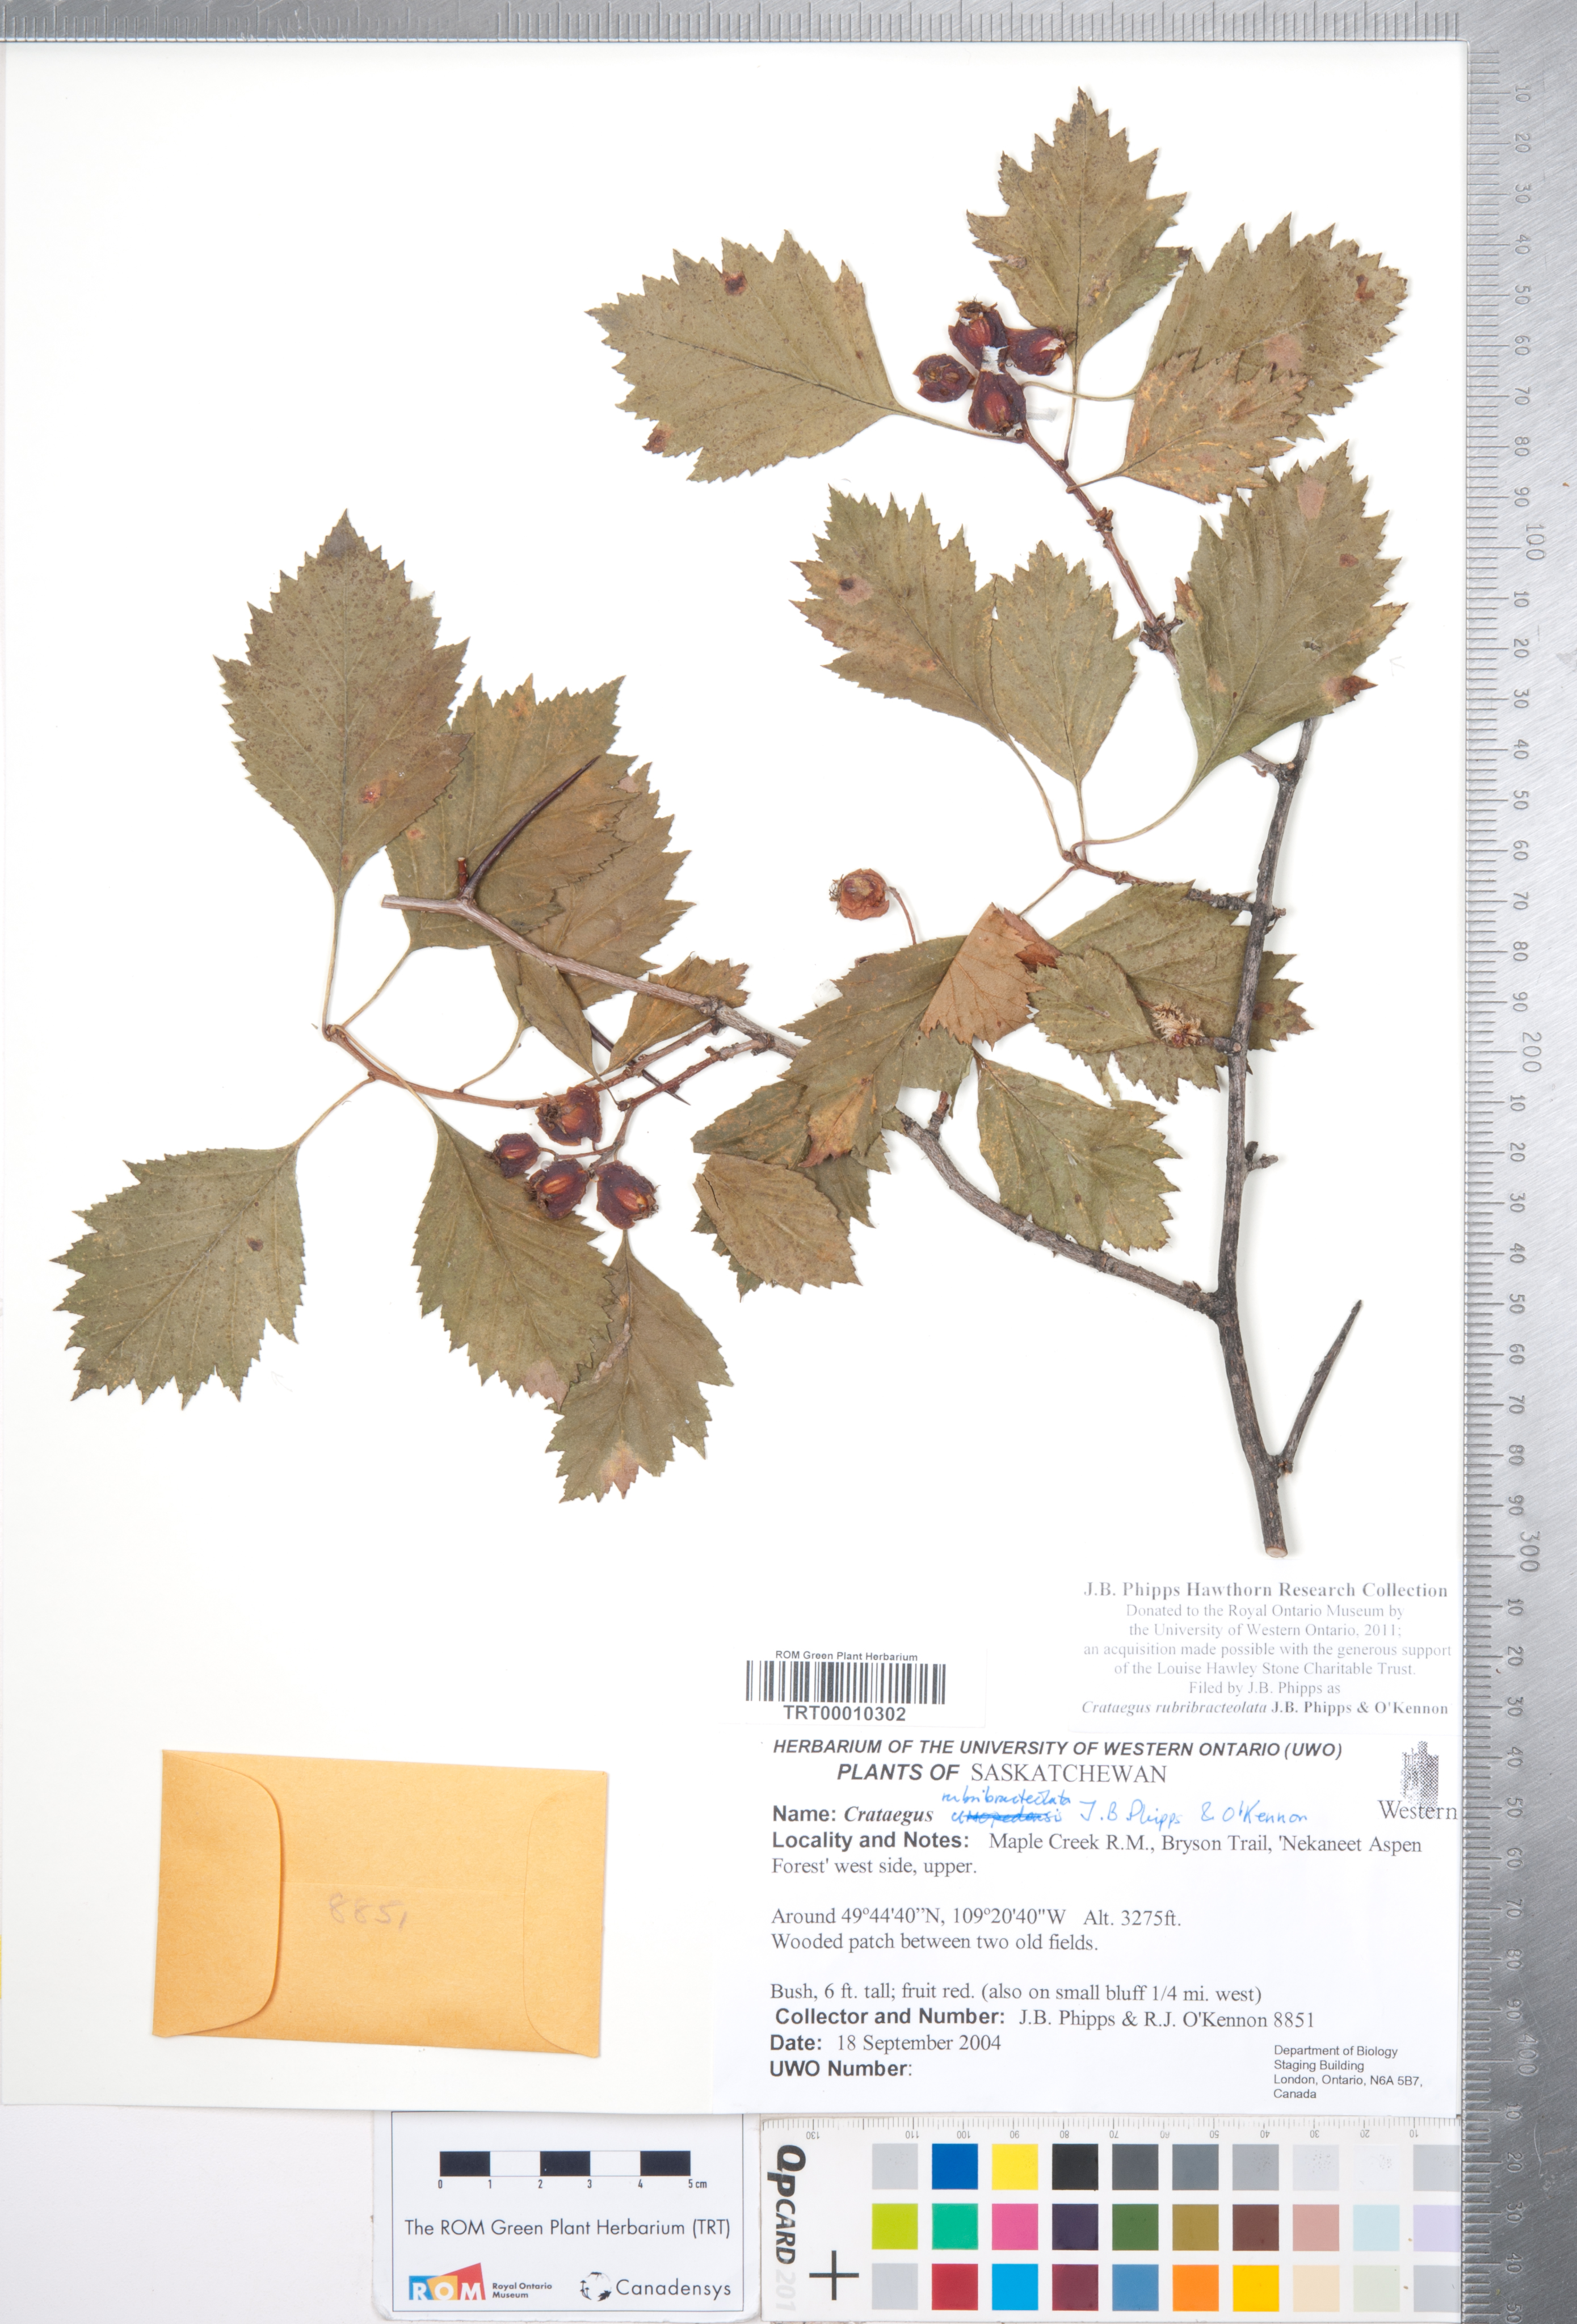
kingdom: Plantae
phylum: Tracheophyta
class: Magnoliopsida
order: Rosales
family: Rosaceae
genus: Crataegus
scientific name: Crataegus rubribracteolata
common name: Red bracteole hawthorn
